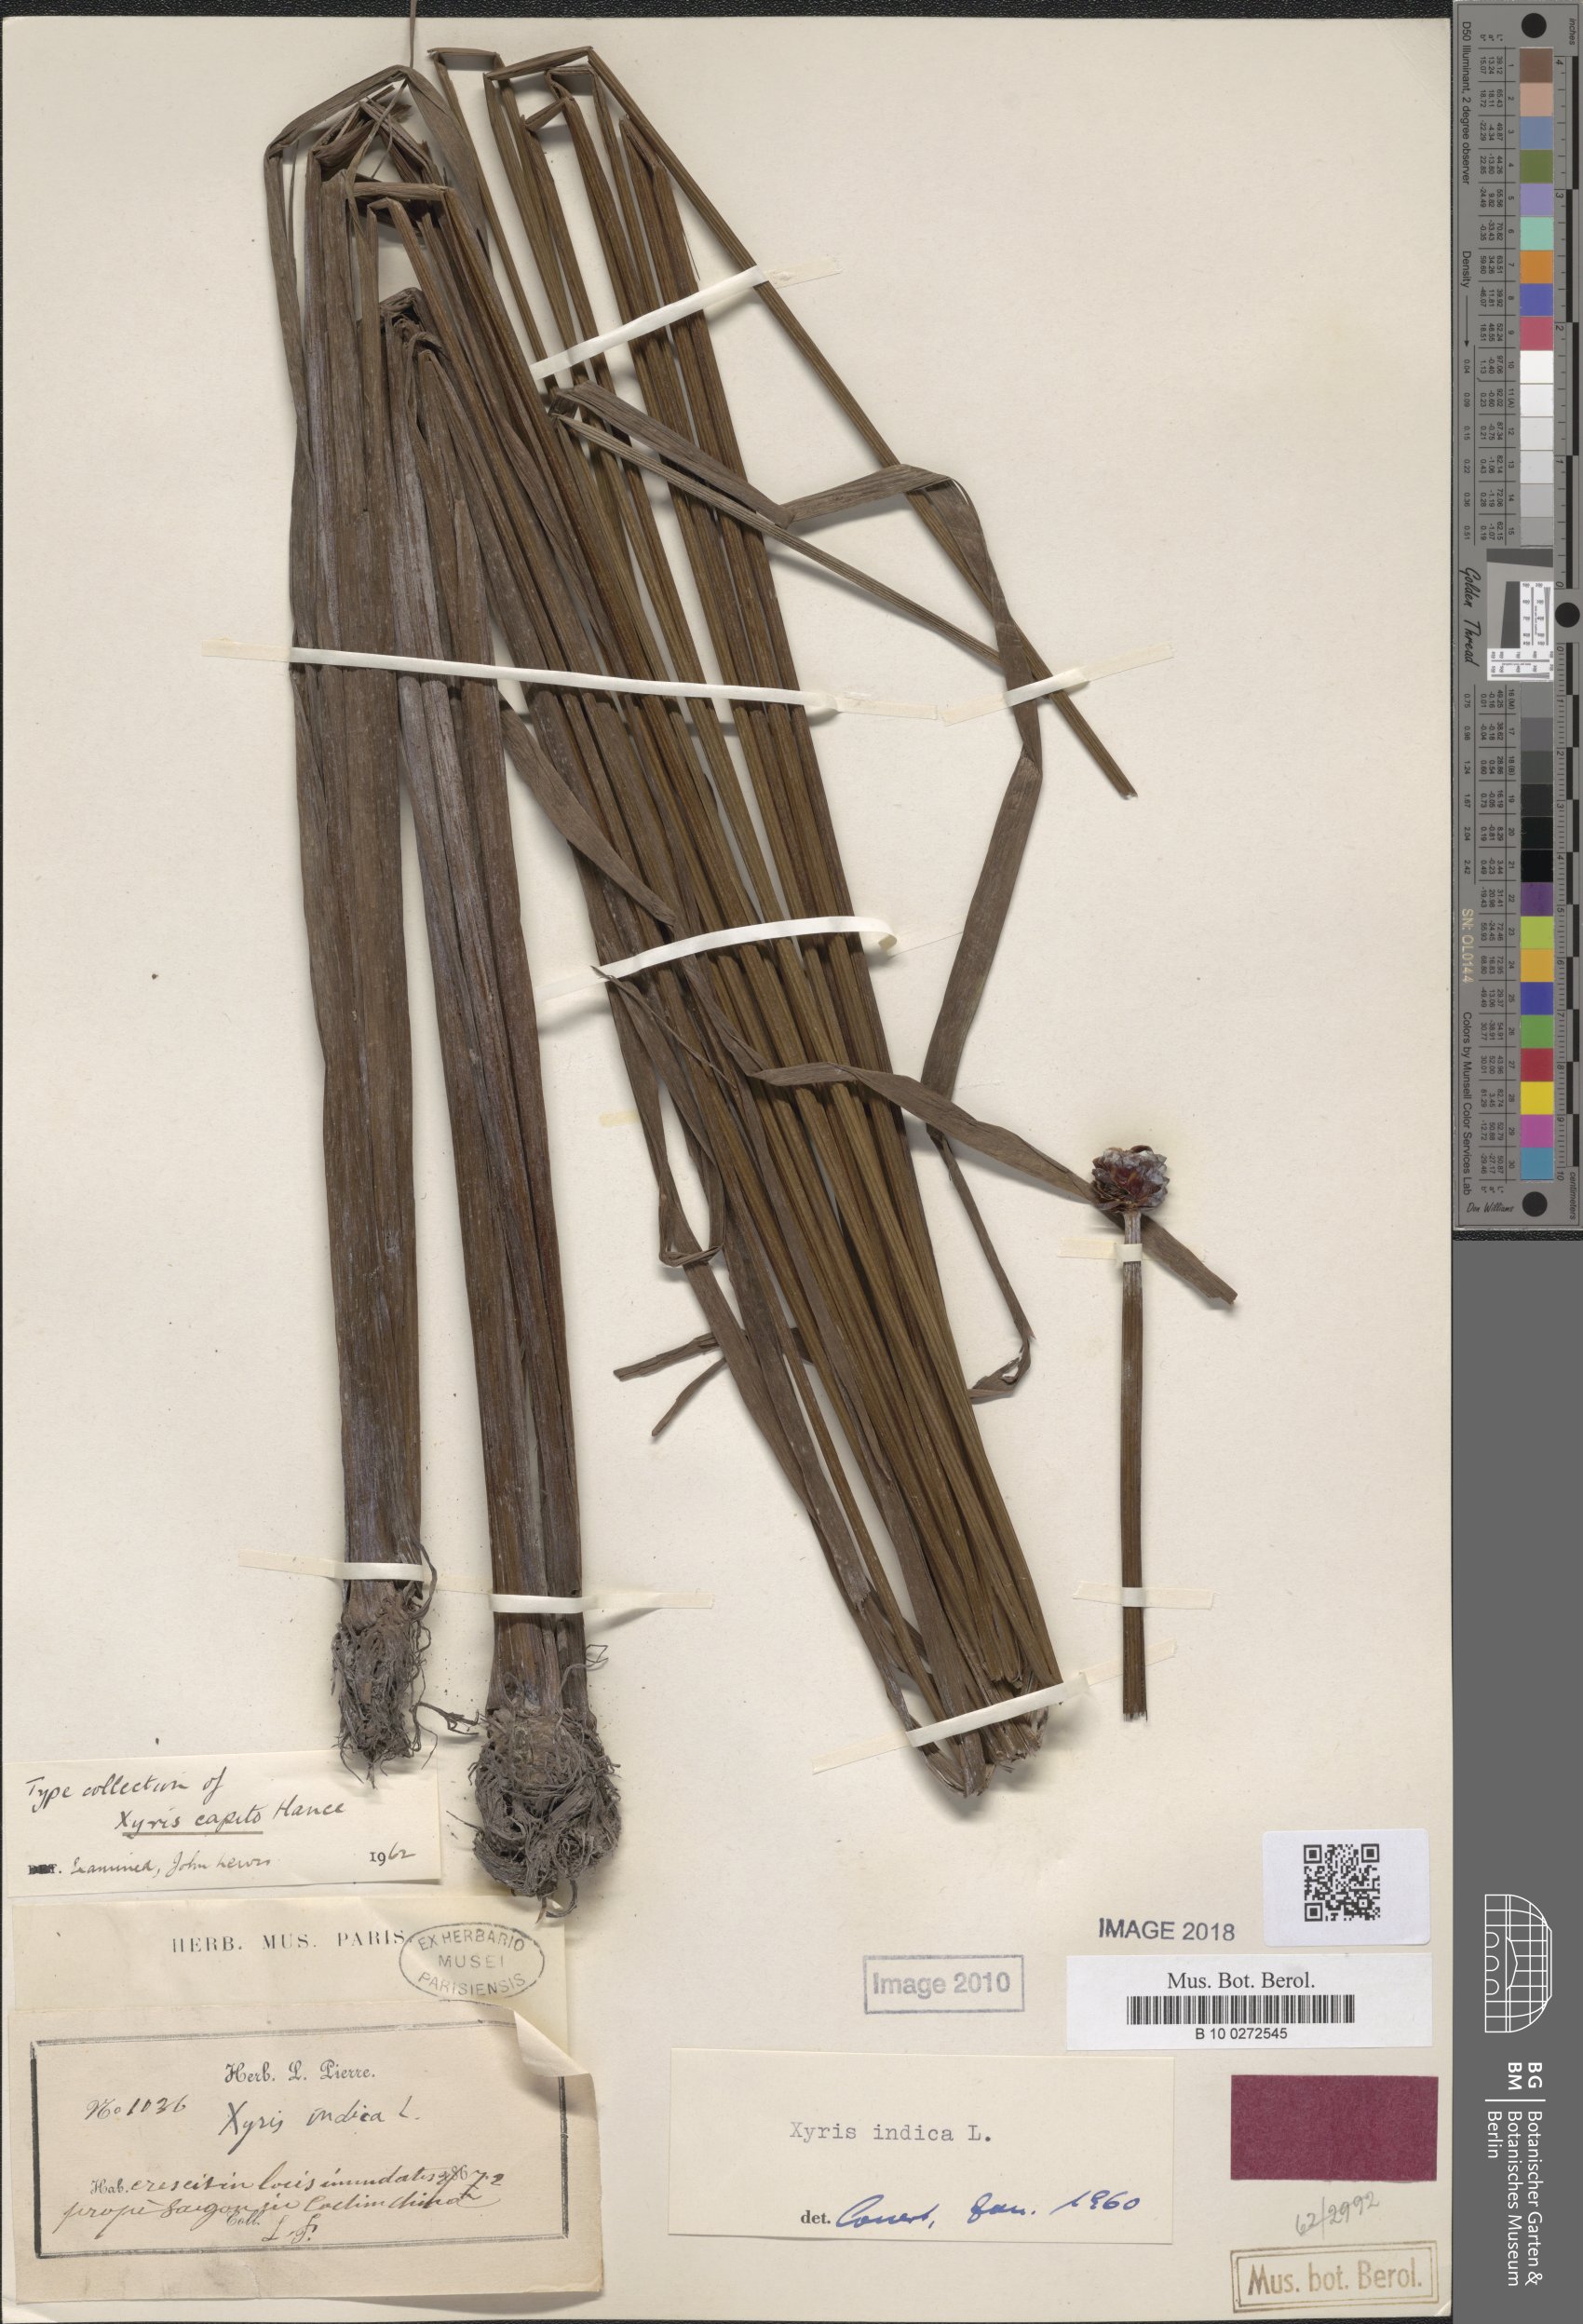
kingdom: Plantae
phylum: Tracheophyta
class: Liliopsida
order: Poales
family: Xyridaceae
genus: Xyris
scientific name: Xyris indica
